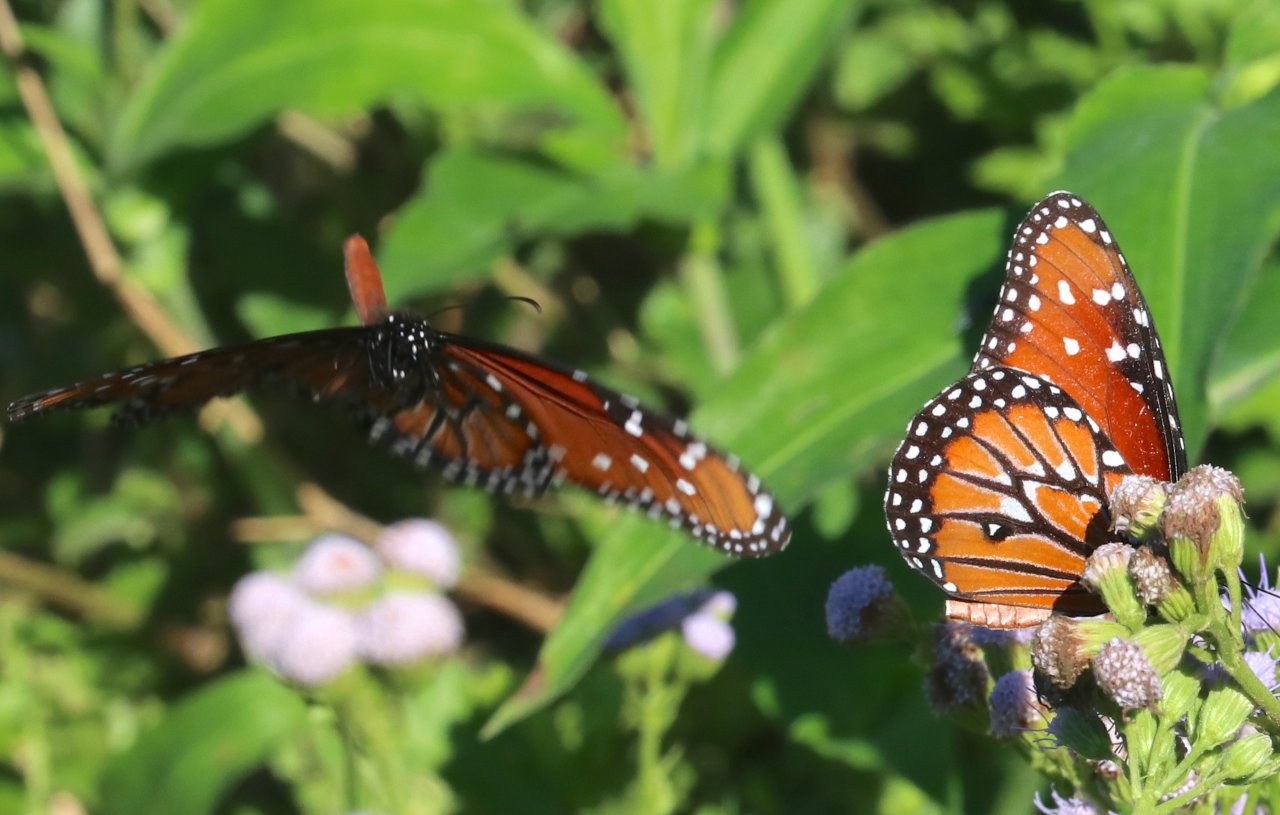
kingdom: Animalia
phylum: Arthropoda
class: Insecta
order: Lepidoptera
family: Nymphalidae
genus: Danaus
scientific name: Danaus gilippus
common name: Queen
